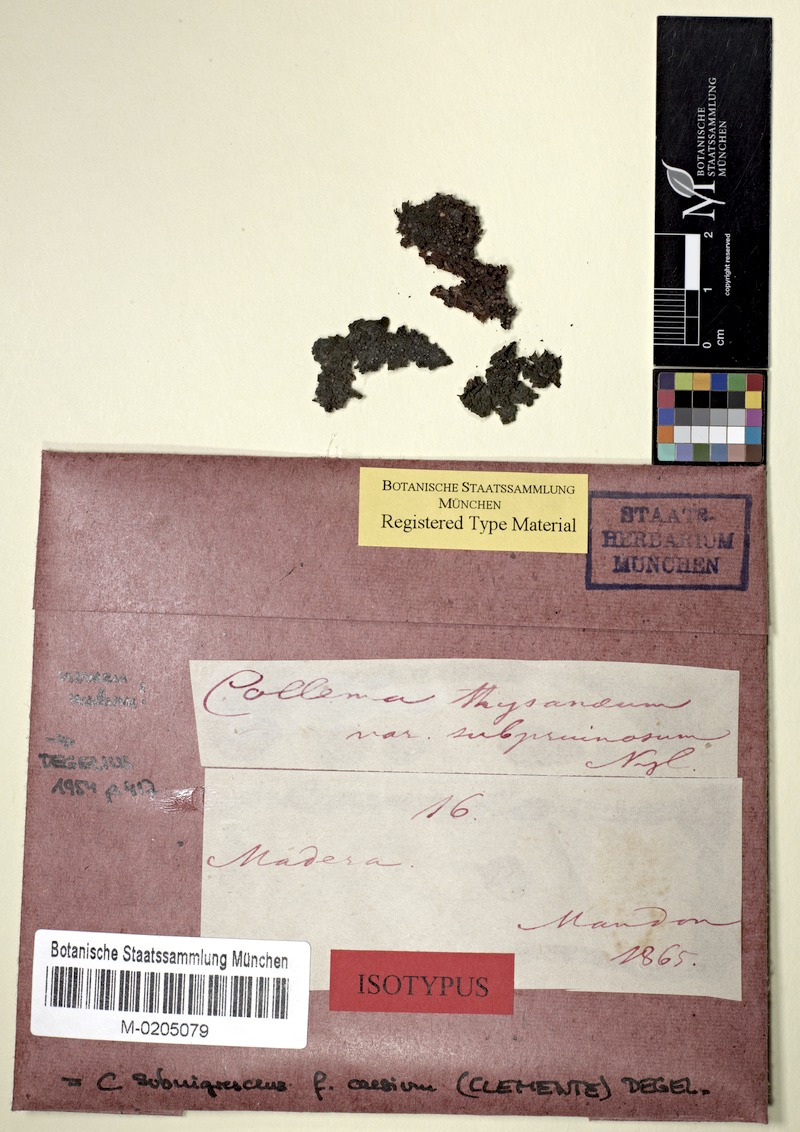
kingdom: Fungi
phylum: Ascomycota
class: Lecanoromycetes
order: Peltigerales
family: Collemataceae
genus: Collema
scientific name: Collema subnigrescens
